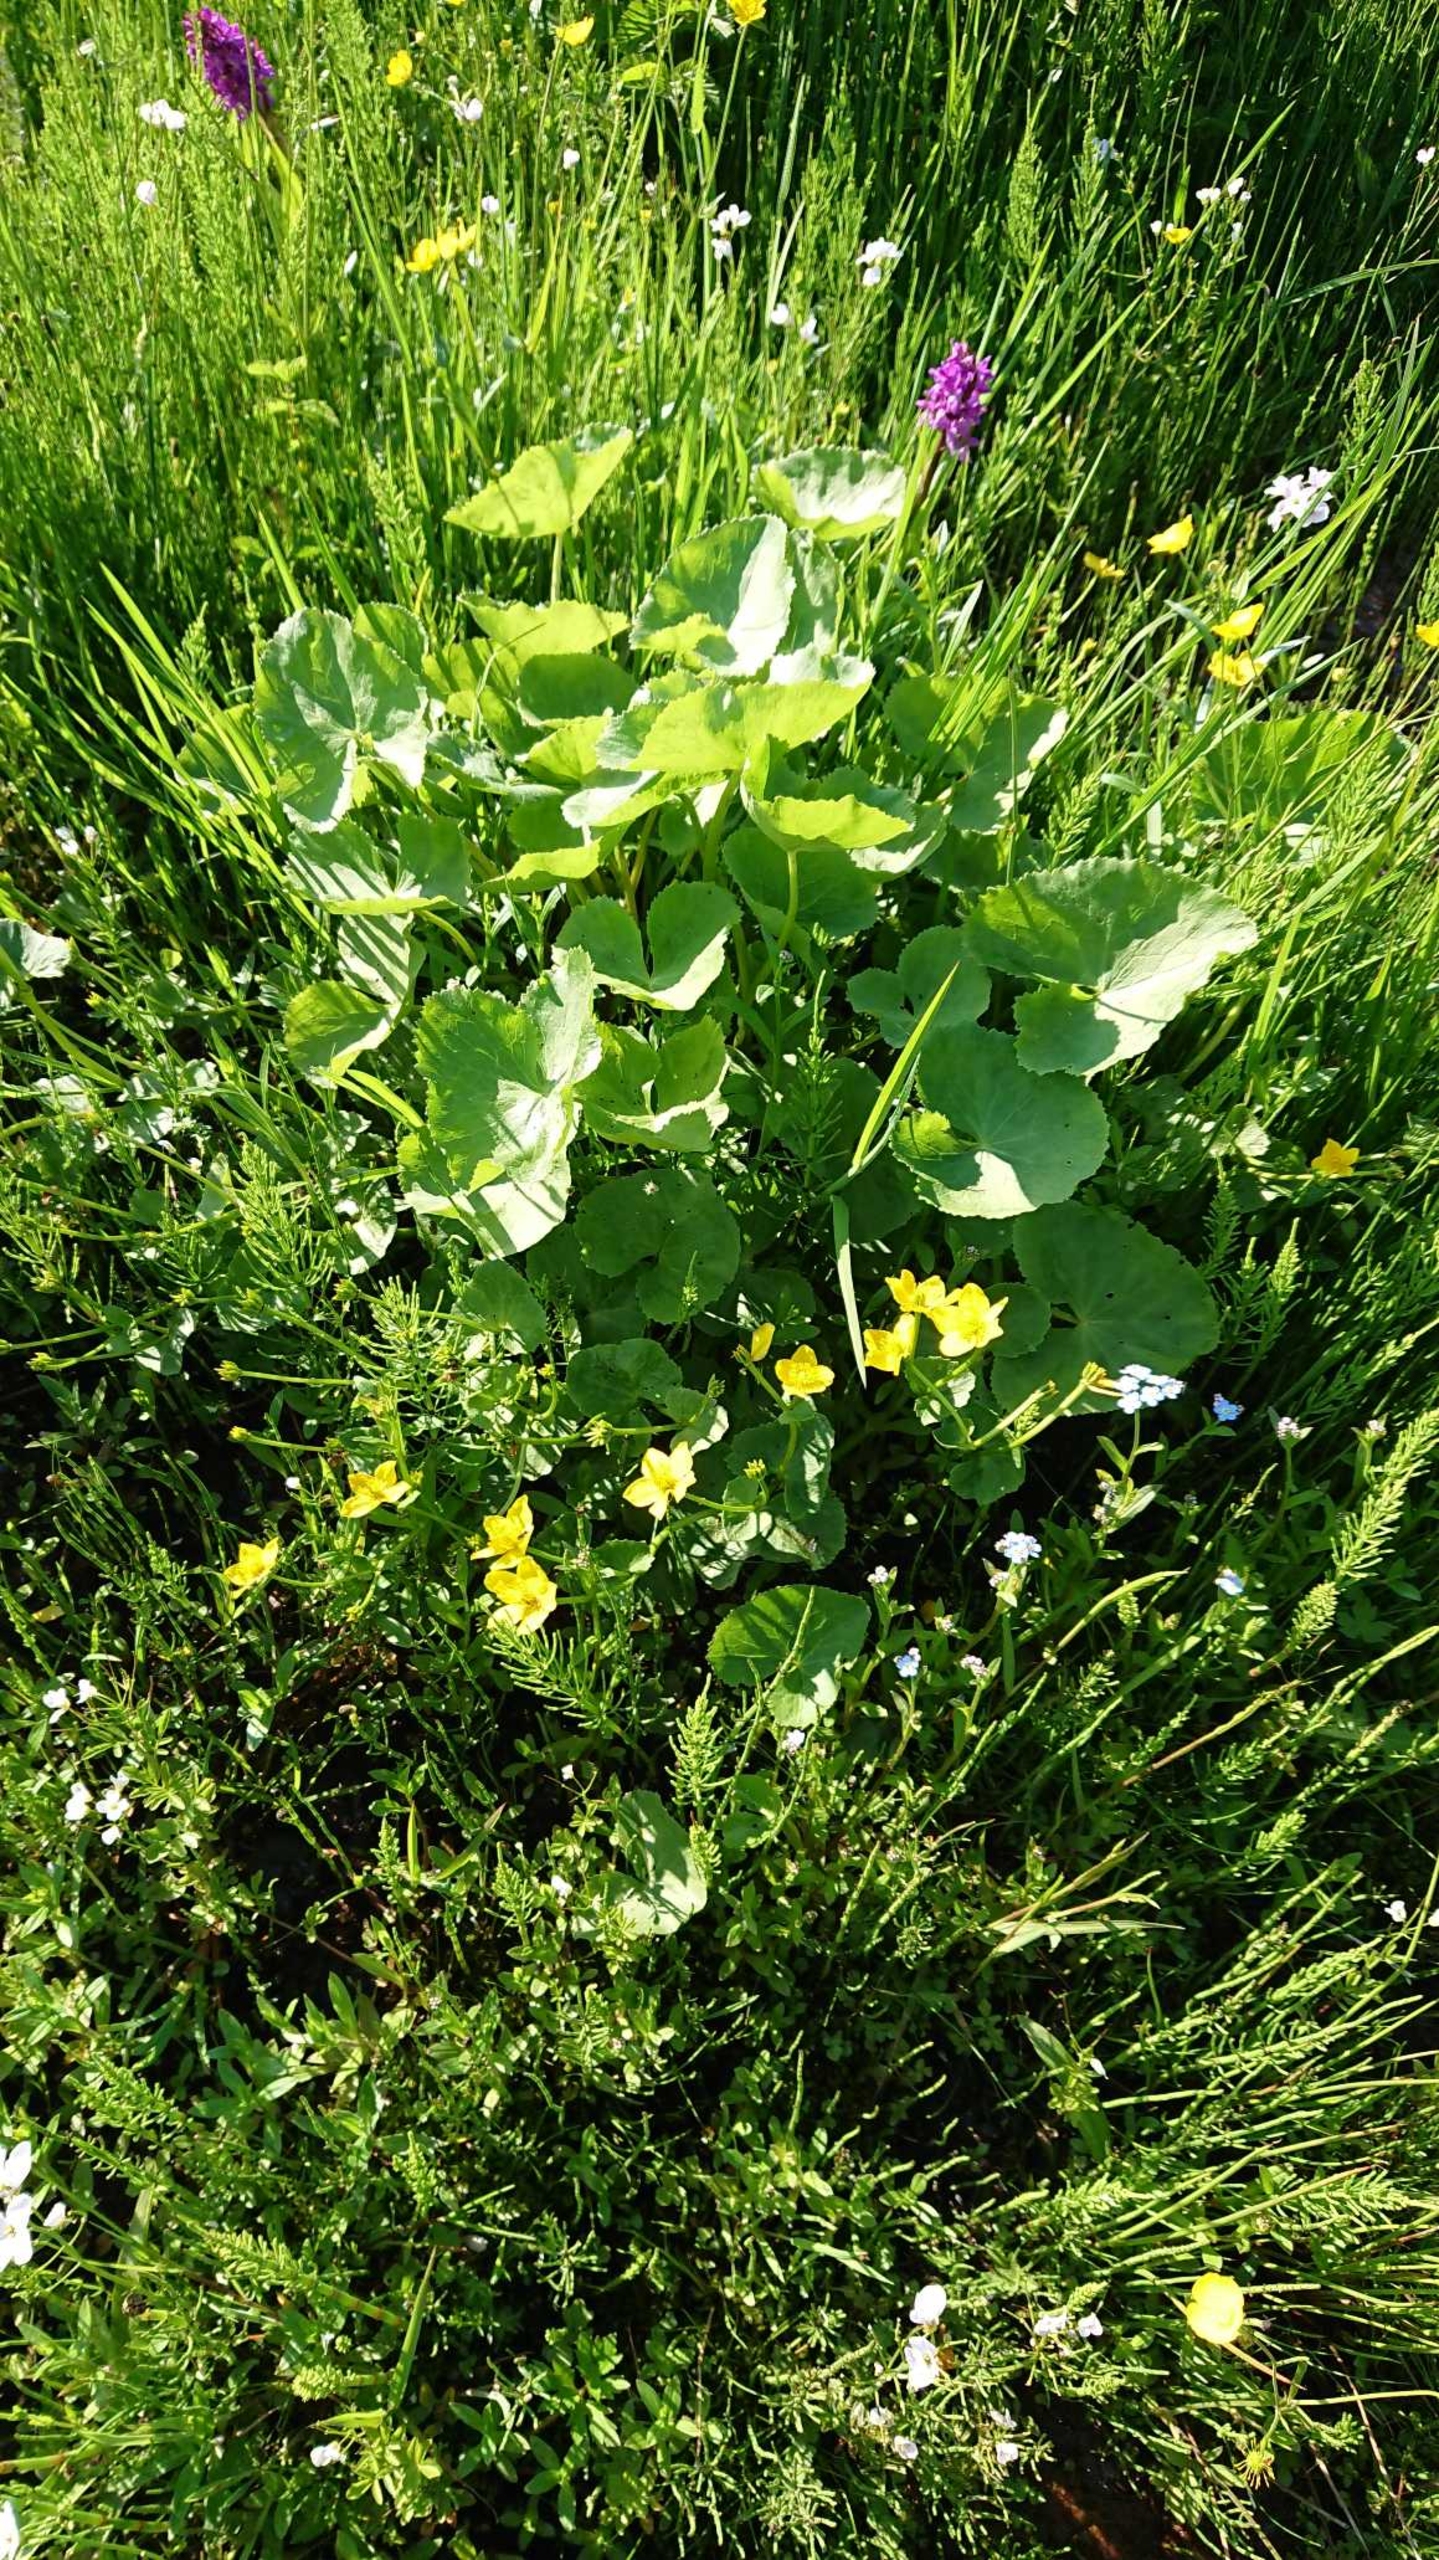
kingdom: Plantae
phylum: Tracheophyta
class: Magnoliopsida
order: Ranunculales
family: Ranunculaceae
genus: Caltha
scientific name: Caltha palustris
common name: Eng-kabbeleje (underart)
